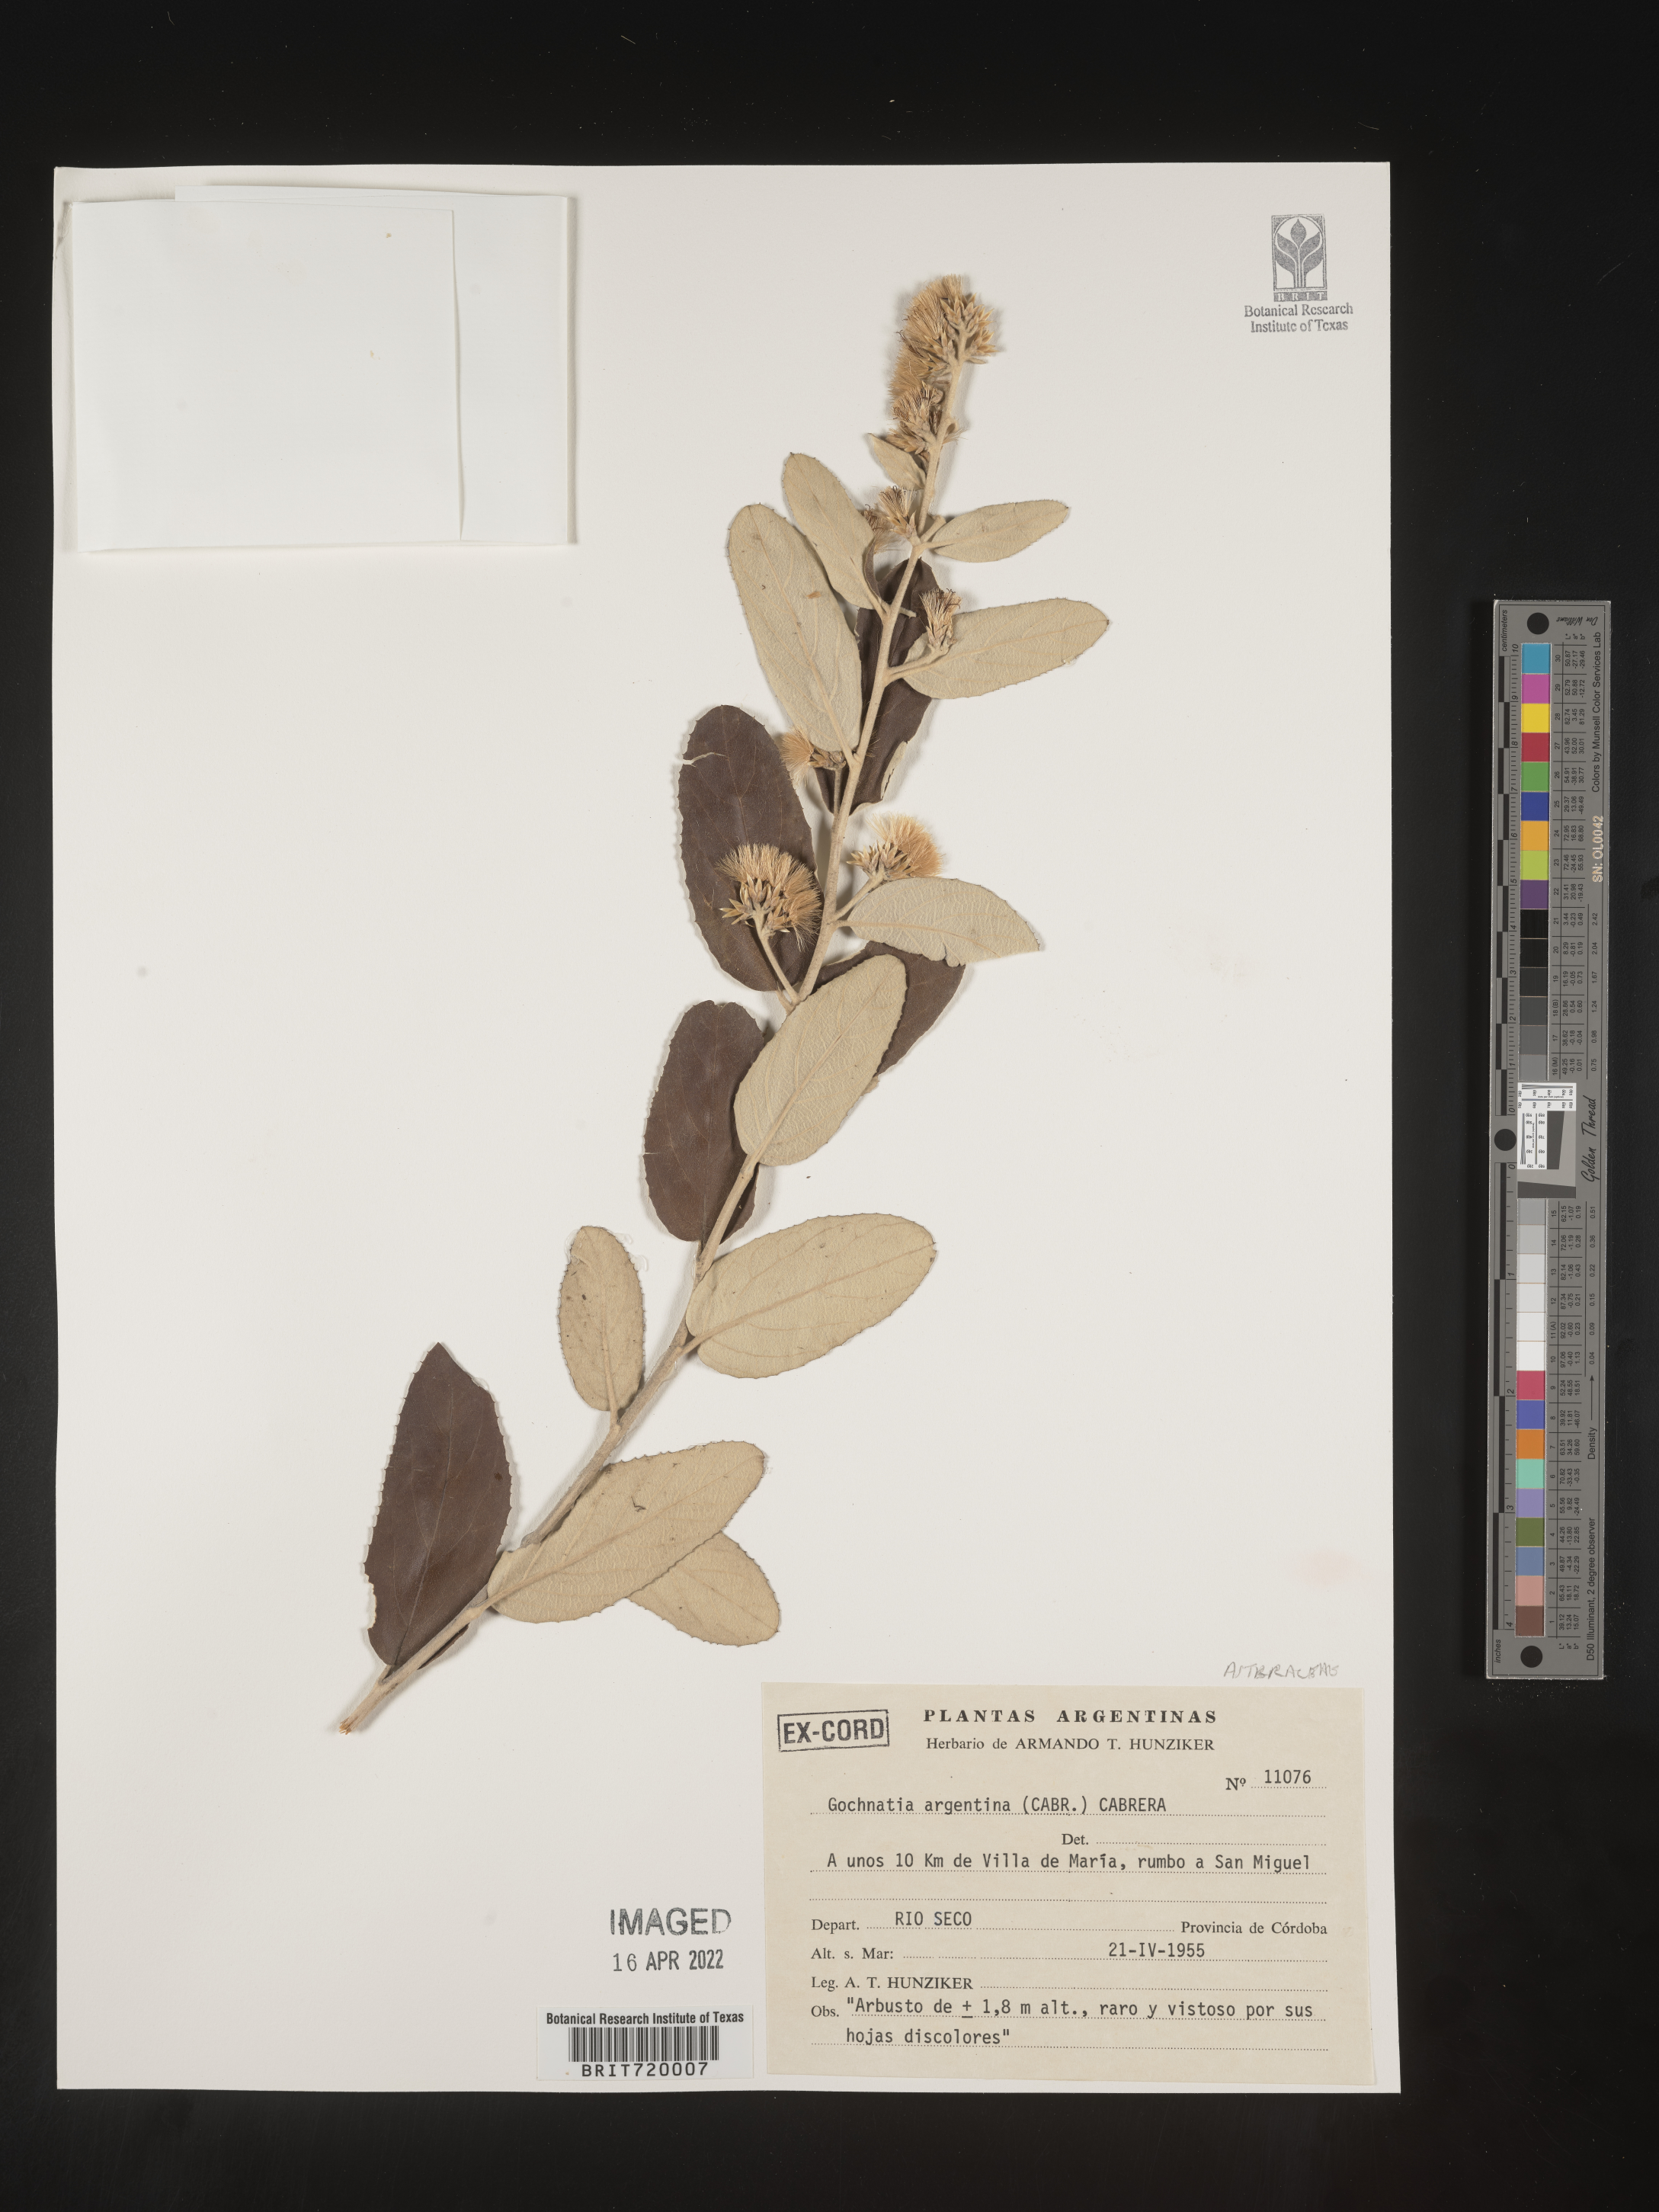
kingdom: Plantae
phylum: Tracheophyta
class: Magnoliopsida
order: Asterales
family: Asteraceae
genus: Gochnatia
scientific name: Gochnatia
